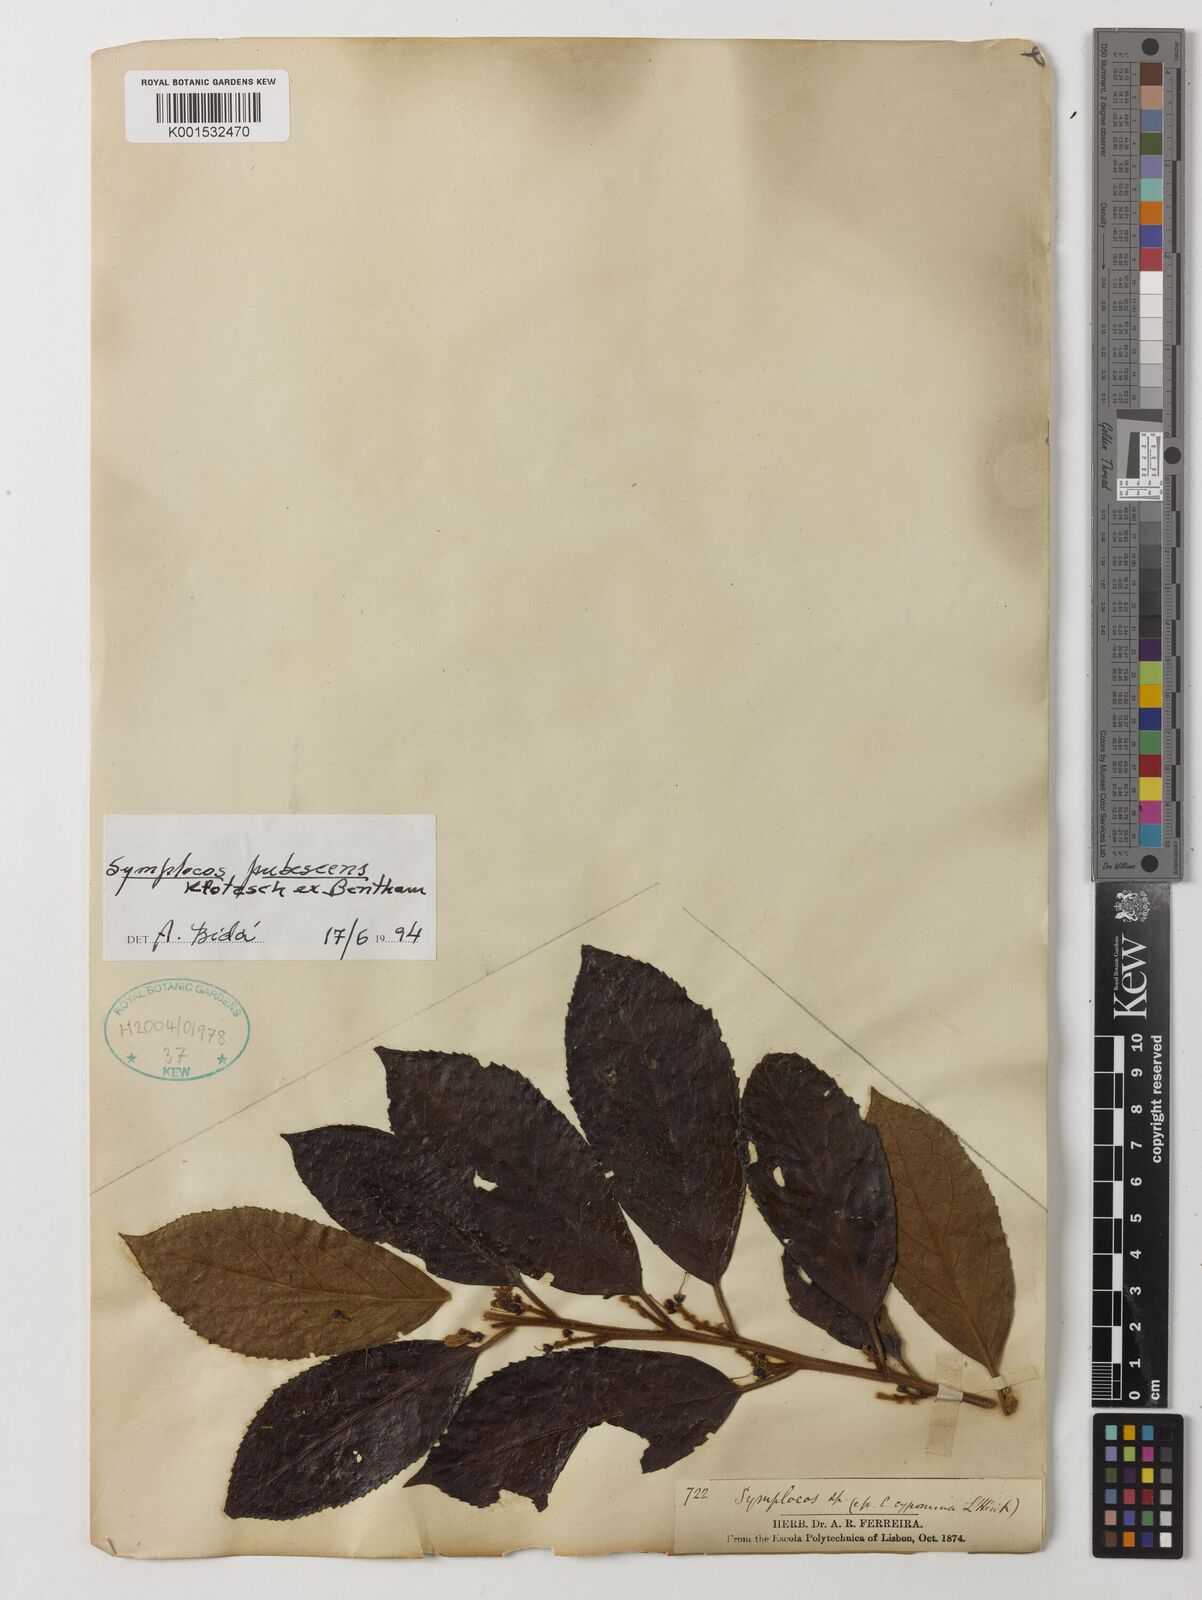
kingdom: Plantae
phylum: Tracheophyta
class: Magnoliopsida
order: Ericales
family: Symplocaceae
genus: Symplocos
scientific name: Symplocos pubescens
